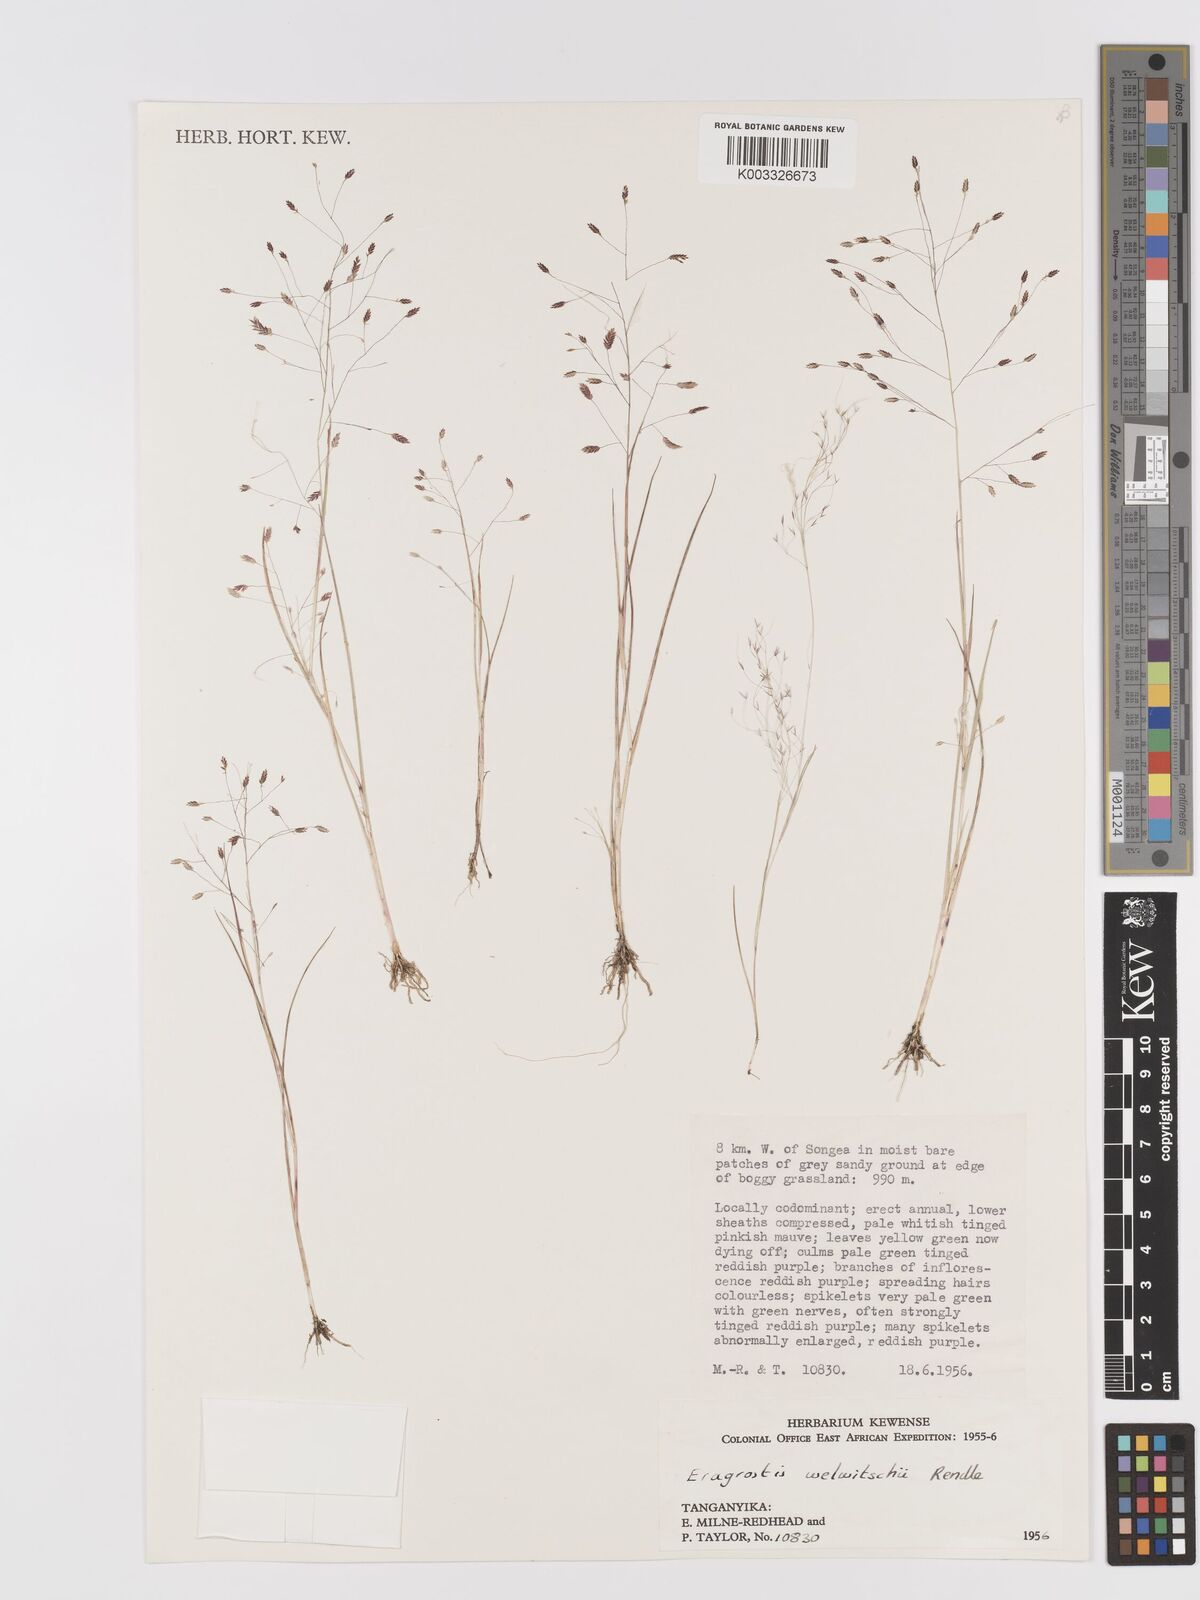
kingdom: Plantae
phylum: Tracheophyta
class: Liliopsida
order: Poales
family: Poaceae
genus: Eragrostis
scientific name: Eragrostis welwitschii
